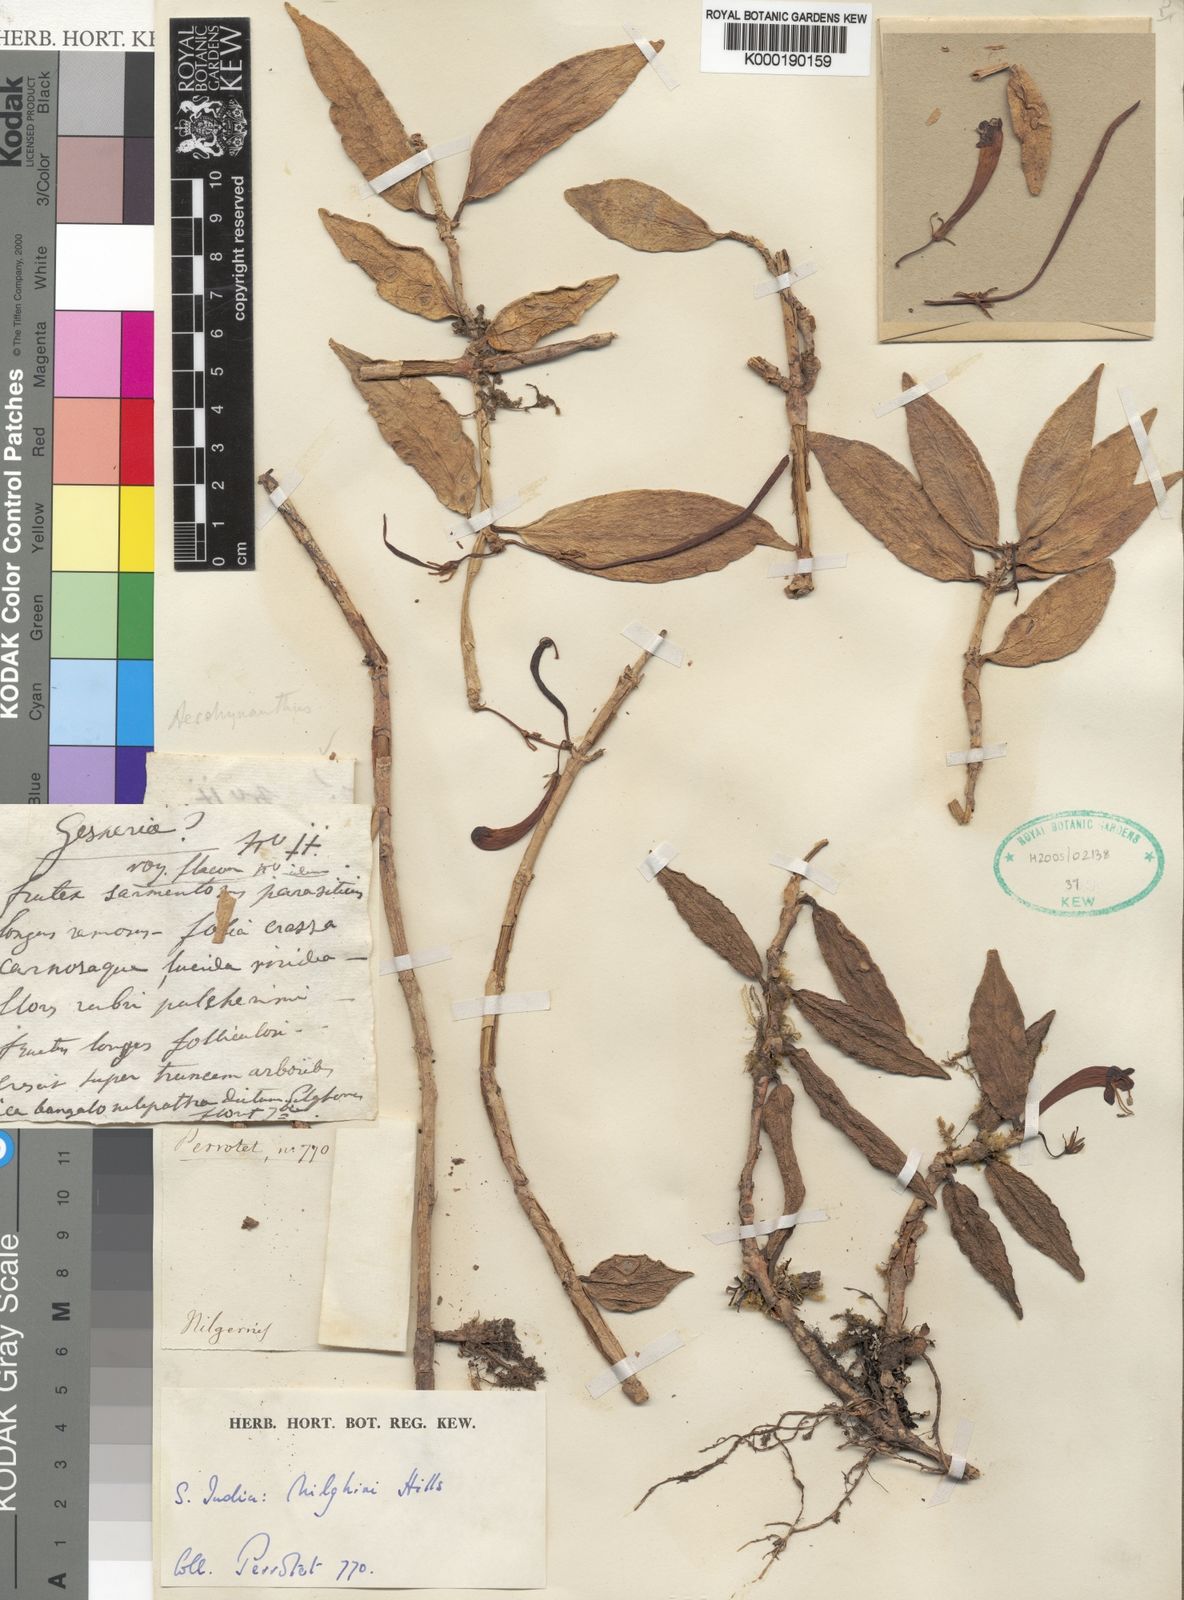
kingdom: Plantae
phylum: Tracheophyta
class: Magnoliopsida
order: Lamiales
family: Gesneriaceae
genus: Aeschynanthus
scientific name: Aeschynanthus perrottetii
